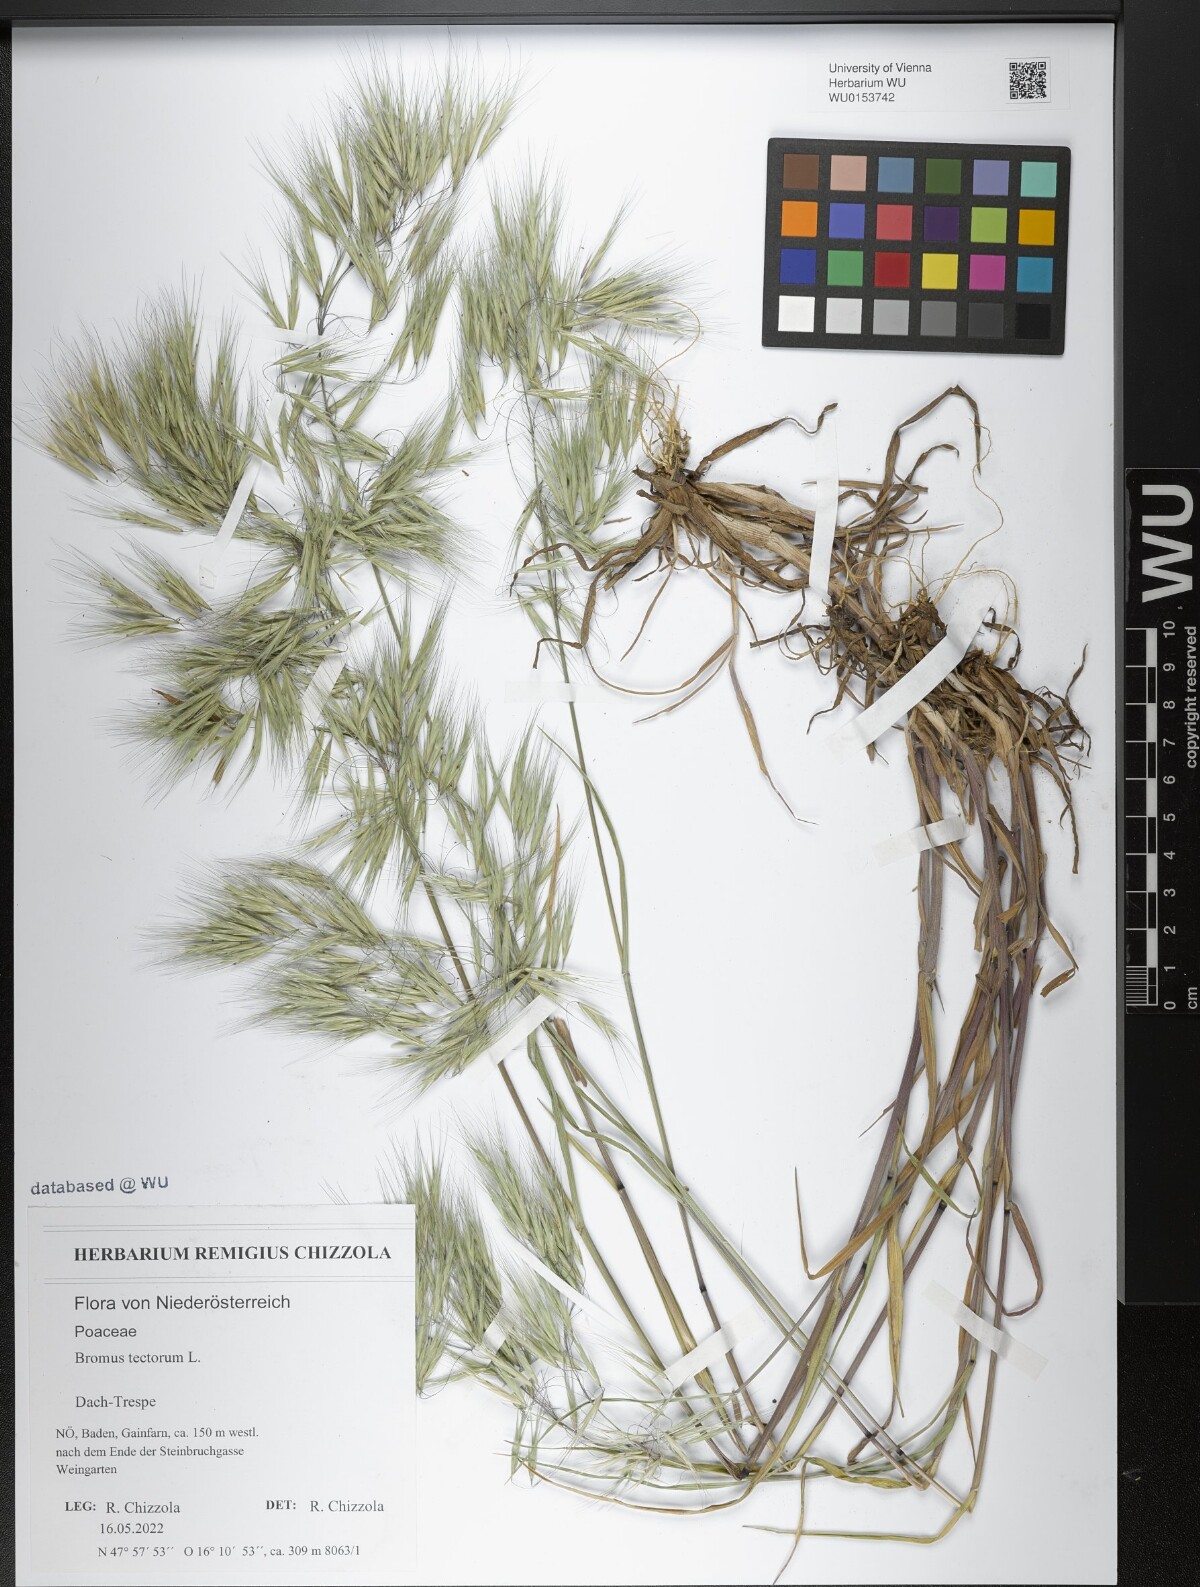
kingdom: Plantae
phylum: Tracheophyta
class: Liliopsida
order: Poales
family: Poaceae
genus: Bromus
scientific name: Bromus tectorum
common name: Cheatgrass
